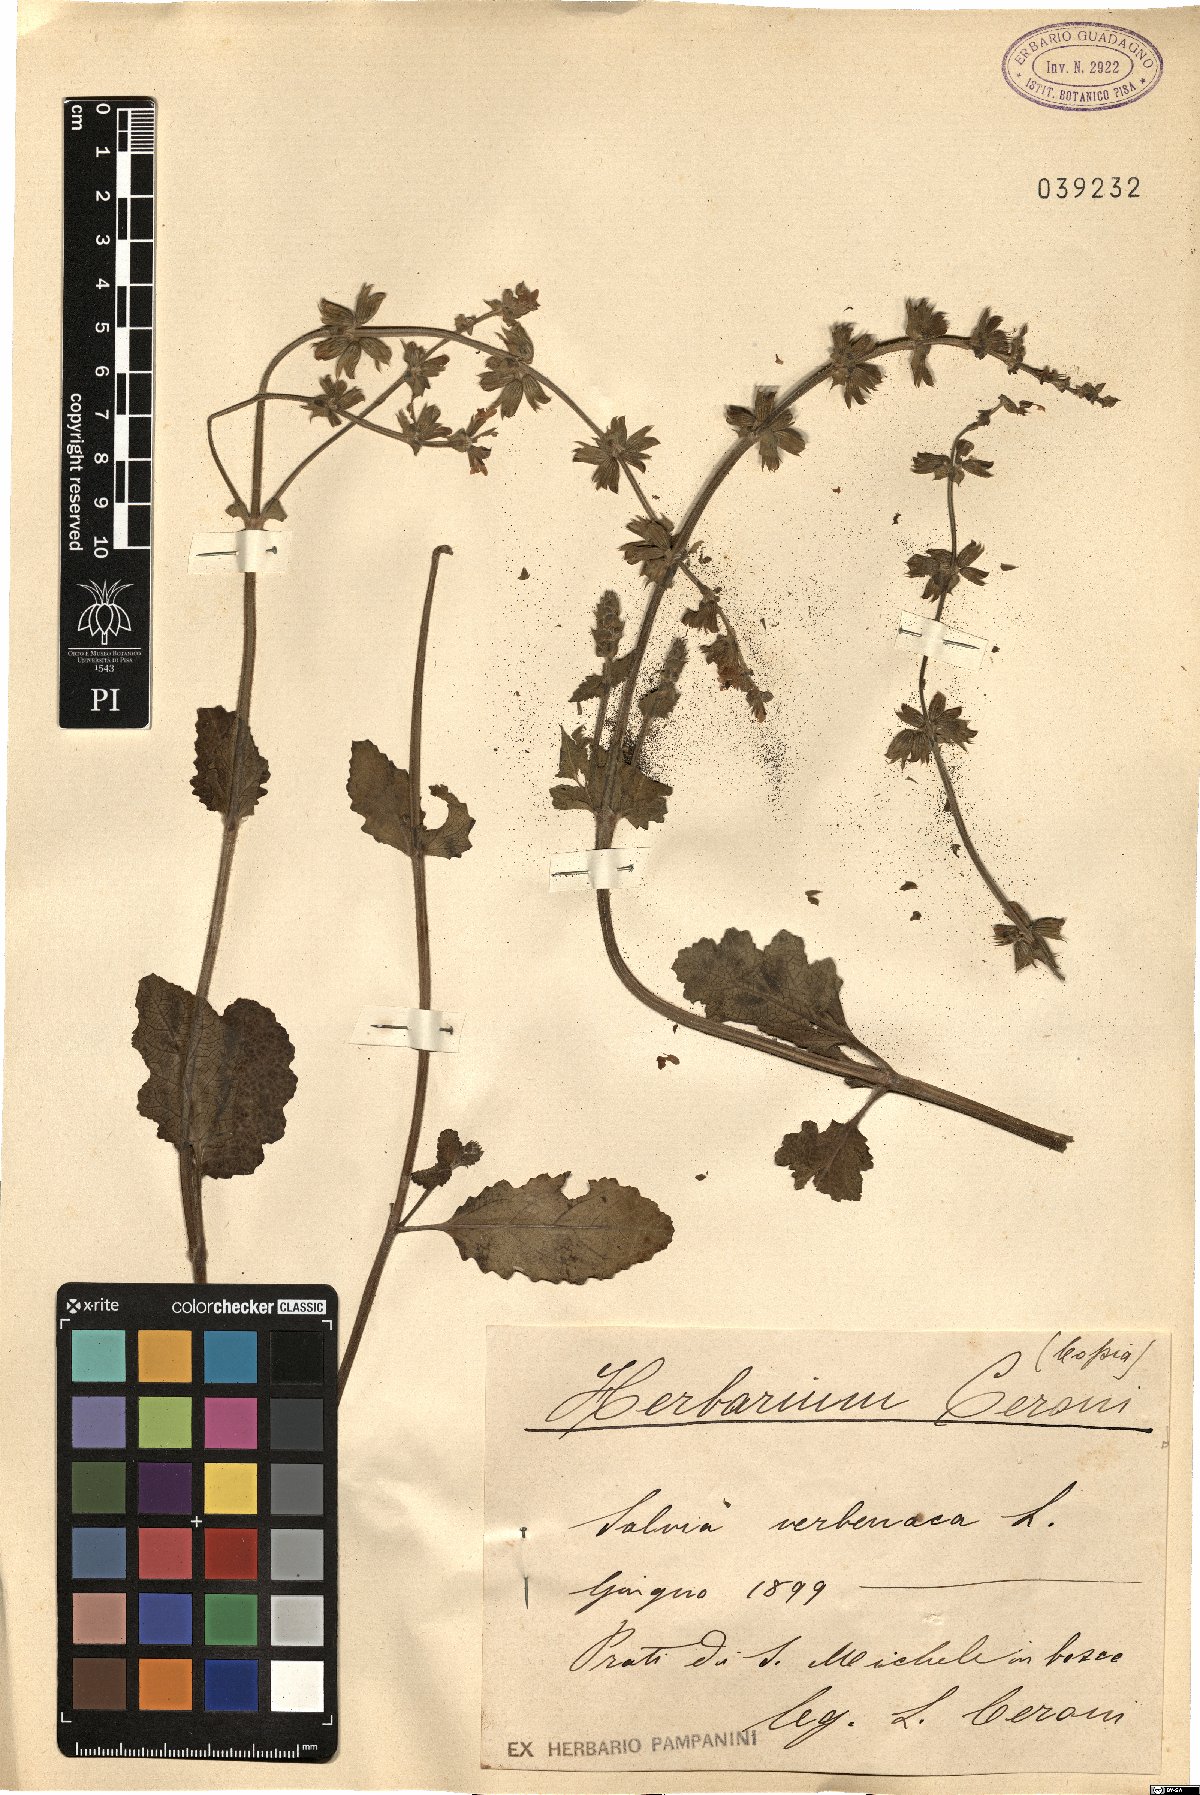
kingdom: Plantae
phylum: Tracheophyta
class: Magnoliopsida
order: Lamiales
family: Lamiaceae
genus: Salvia
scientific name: Salvia verbenaca
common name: Wild clary
